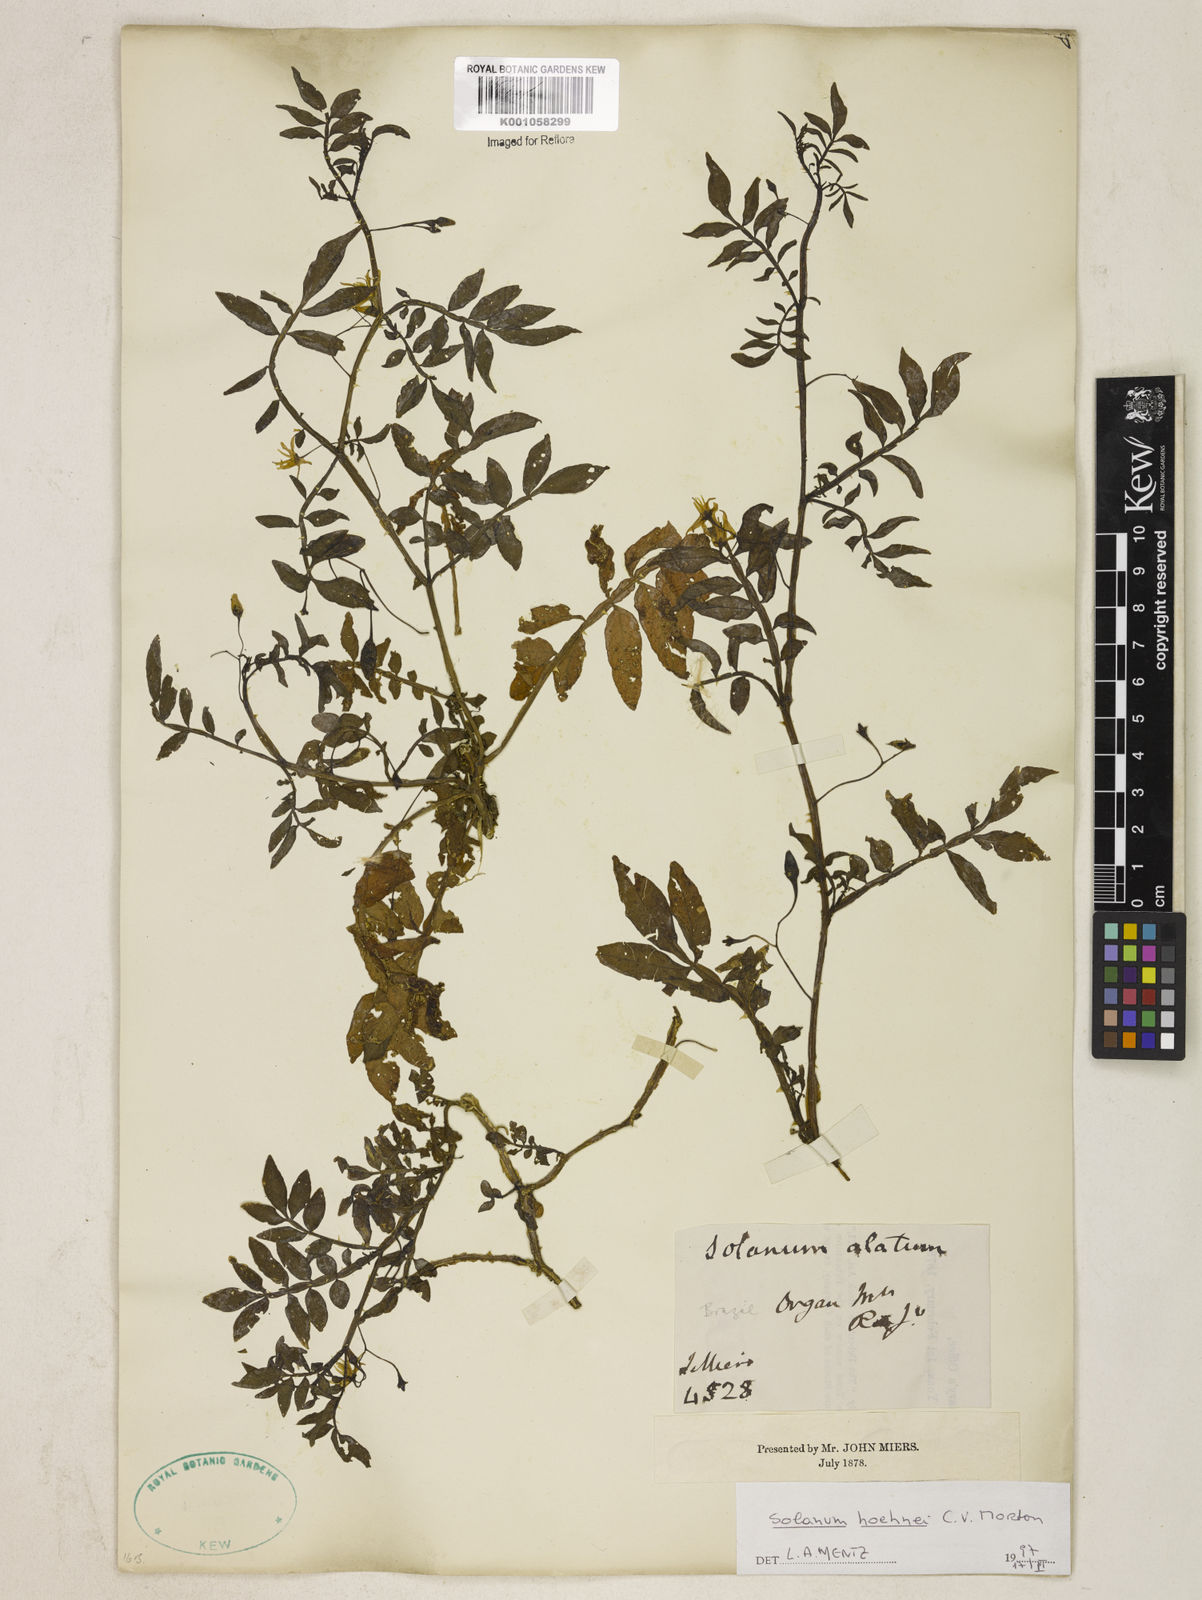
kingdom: Plantae
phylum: Tracheophyta
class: Magnoliopsida
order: Solanales
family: Solanaceae
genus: Solanum
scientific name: Solanum hoehnei
